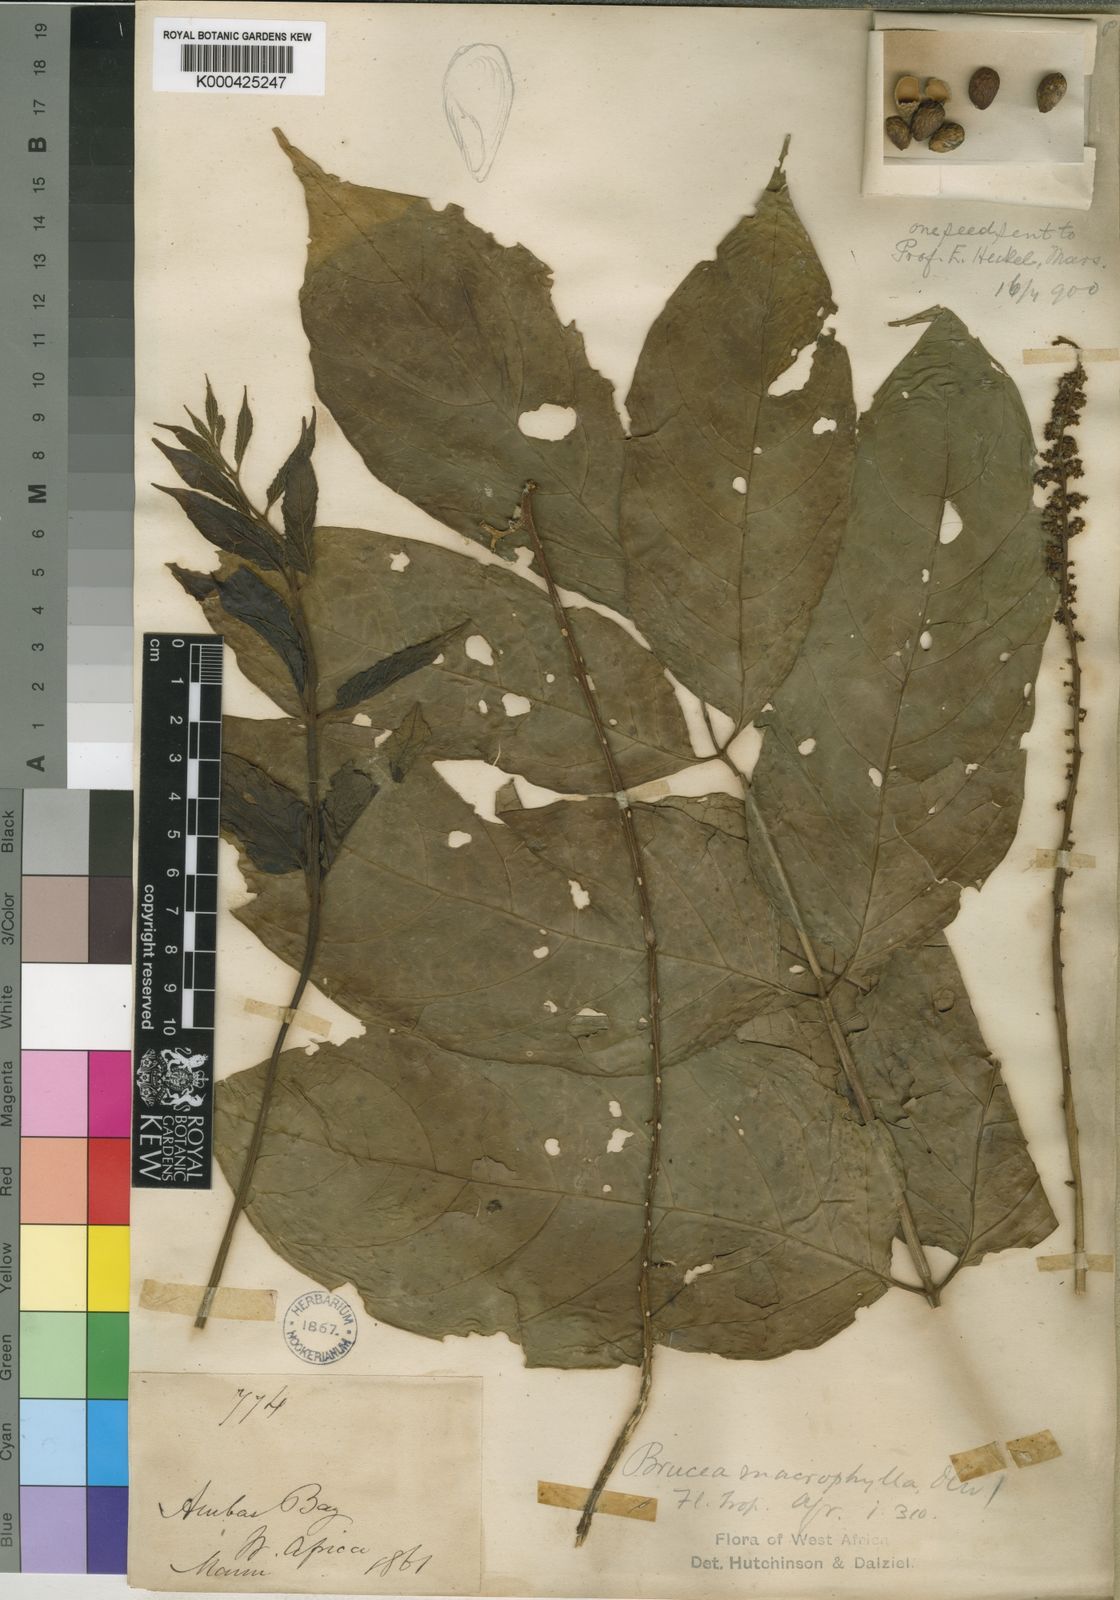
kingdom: Plantae
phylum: Tracheophyta
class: Magnoliopsida
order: Sapindales
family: Anacardiaceae
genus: Trichoscypha
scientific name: Trichoscypha smythei
